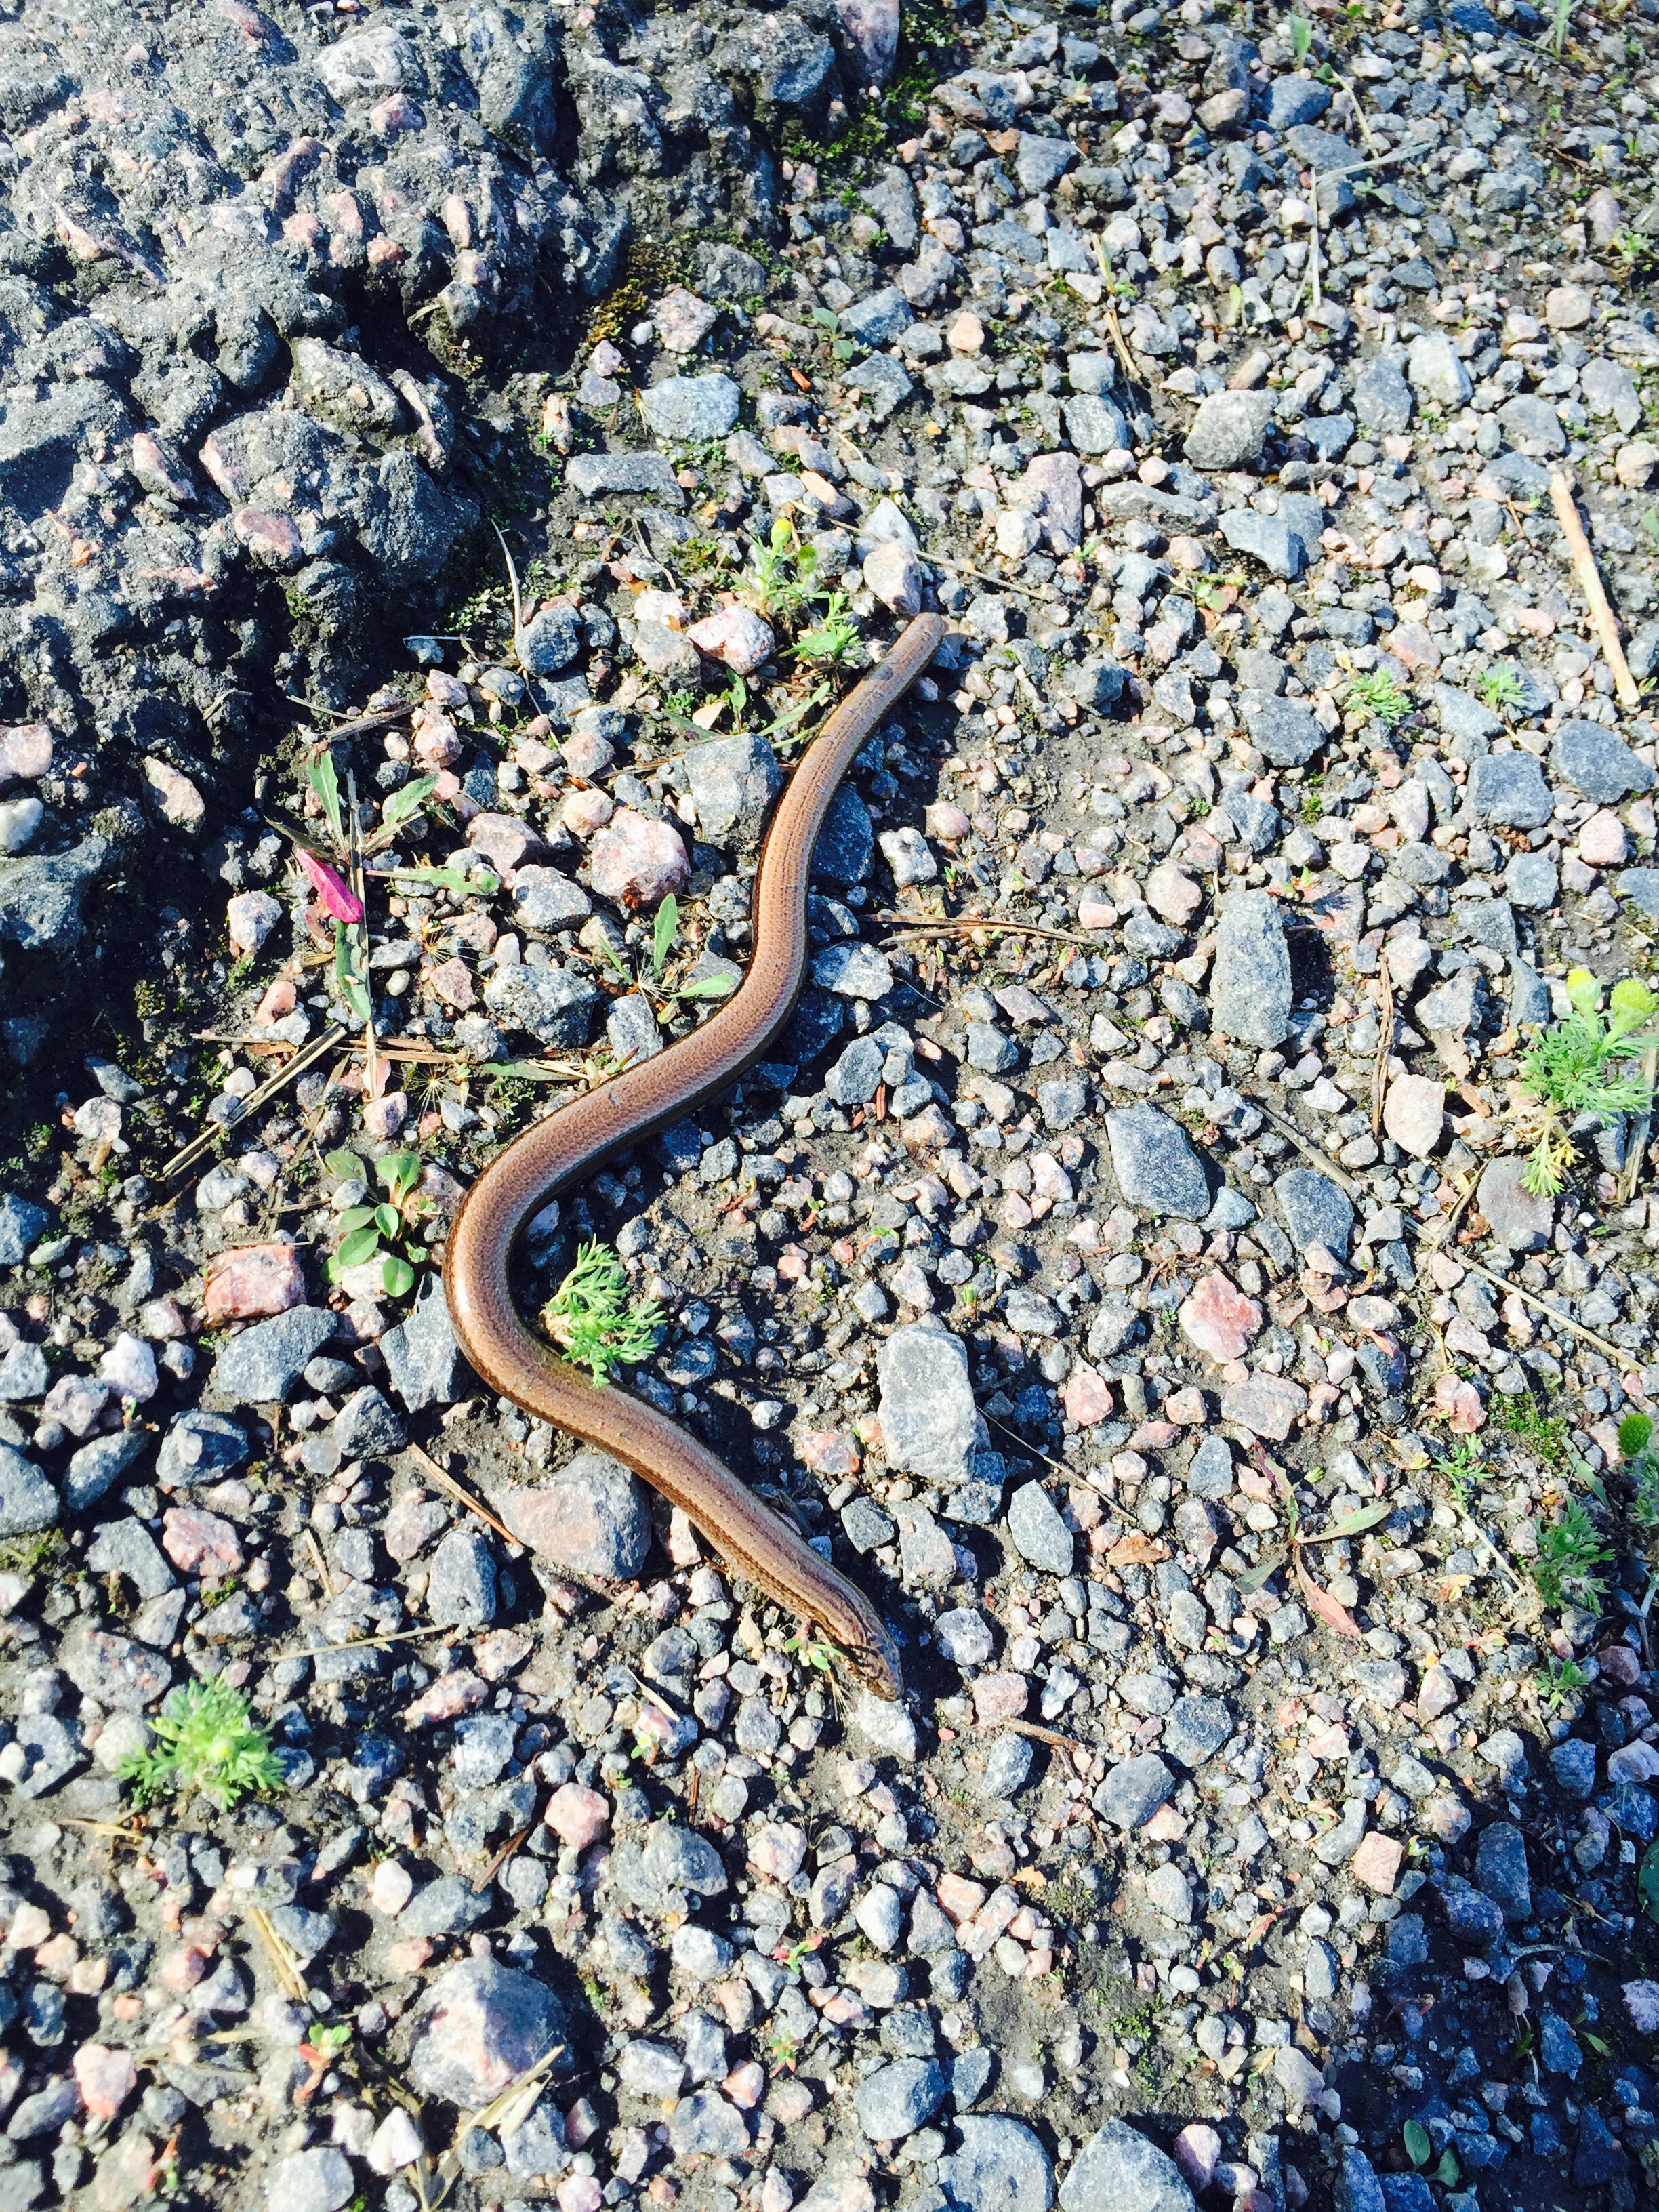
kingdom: Animalia
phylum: Chordata
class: Squamata
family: Anguidae
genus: Anguis
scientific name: Anguis colchica
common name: Slow worm
